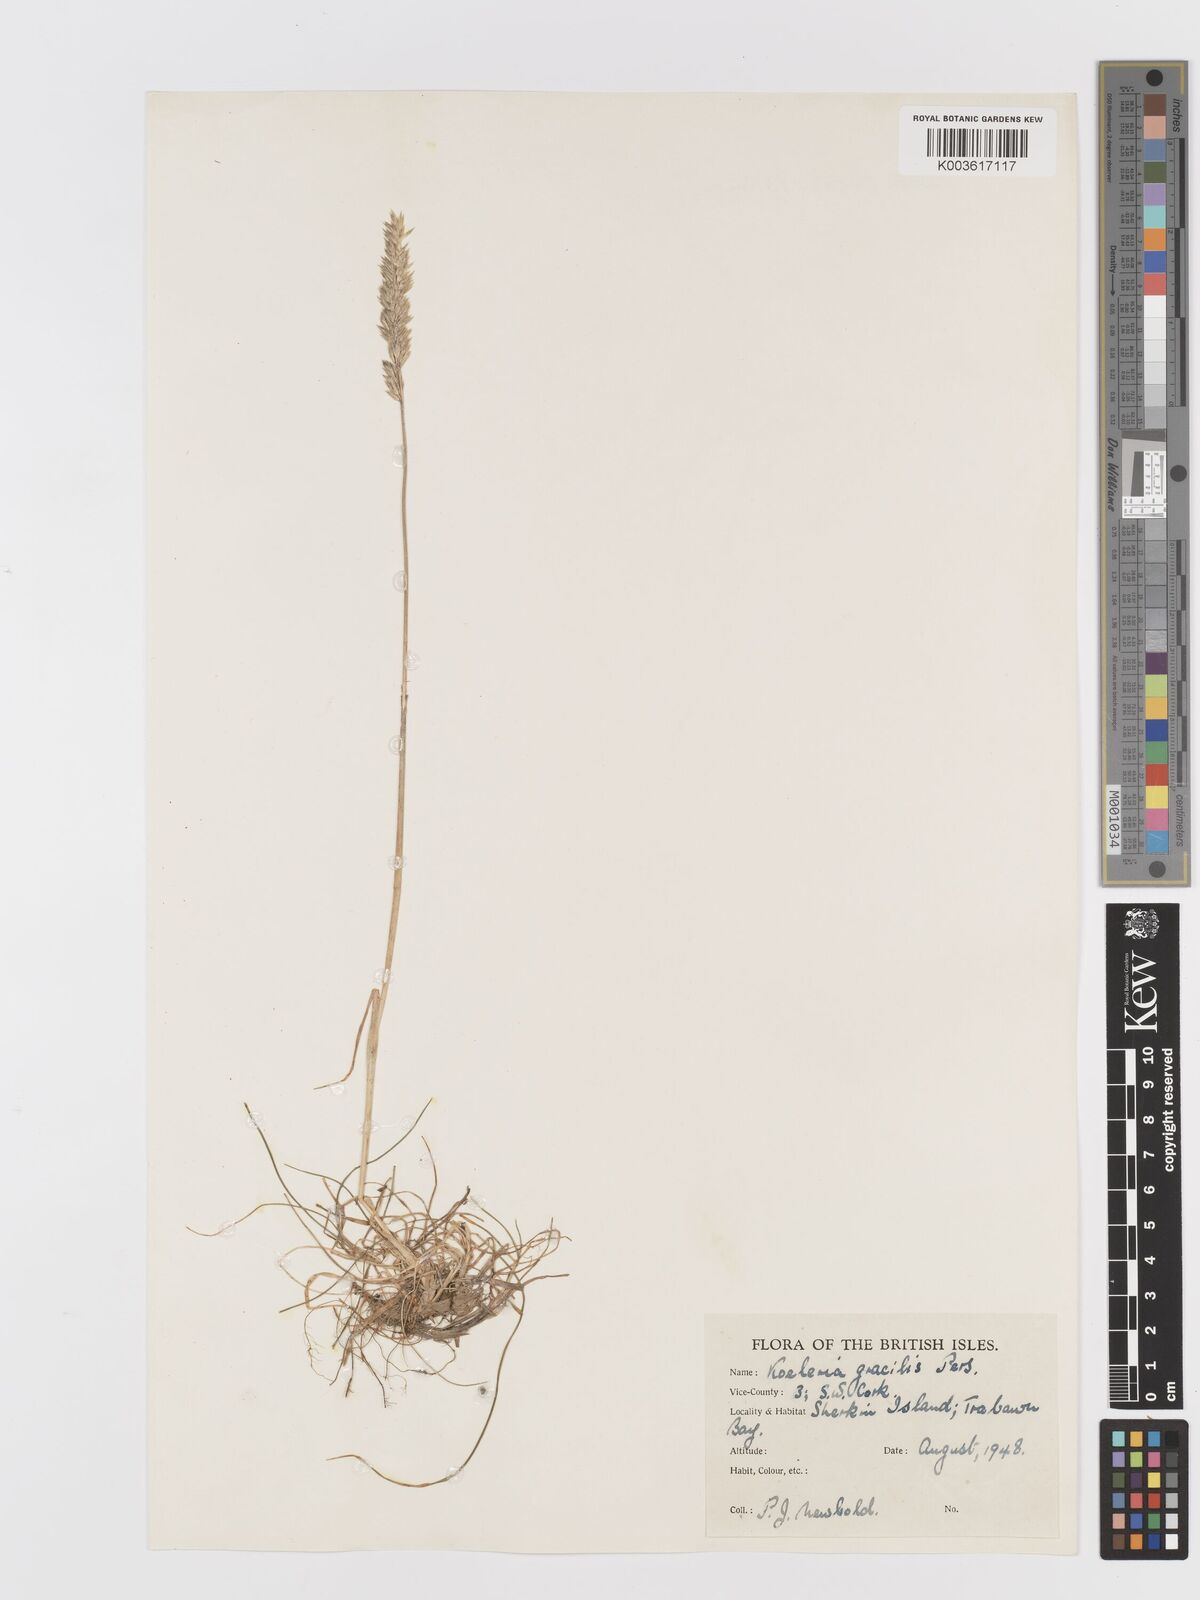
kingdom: Plantae
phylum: Tracheophyta
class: Liliopsida
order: Poales
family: Poaceae
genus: Koeleria
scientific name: Koeleria nitidula
